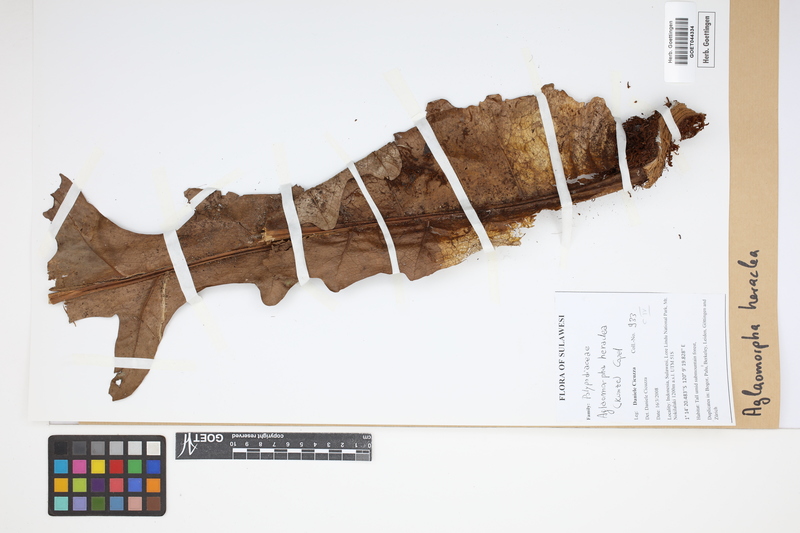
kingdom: Plantae
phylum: Tracheophyta
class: Polypodiopsida
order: Polypodiales
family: Polypodiaceae
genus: Drynaria
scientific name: Drynaria heraclea
